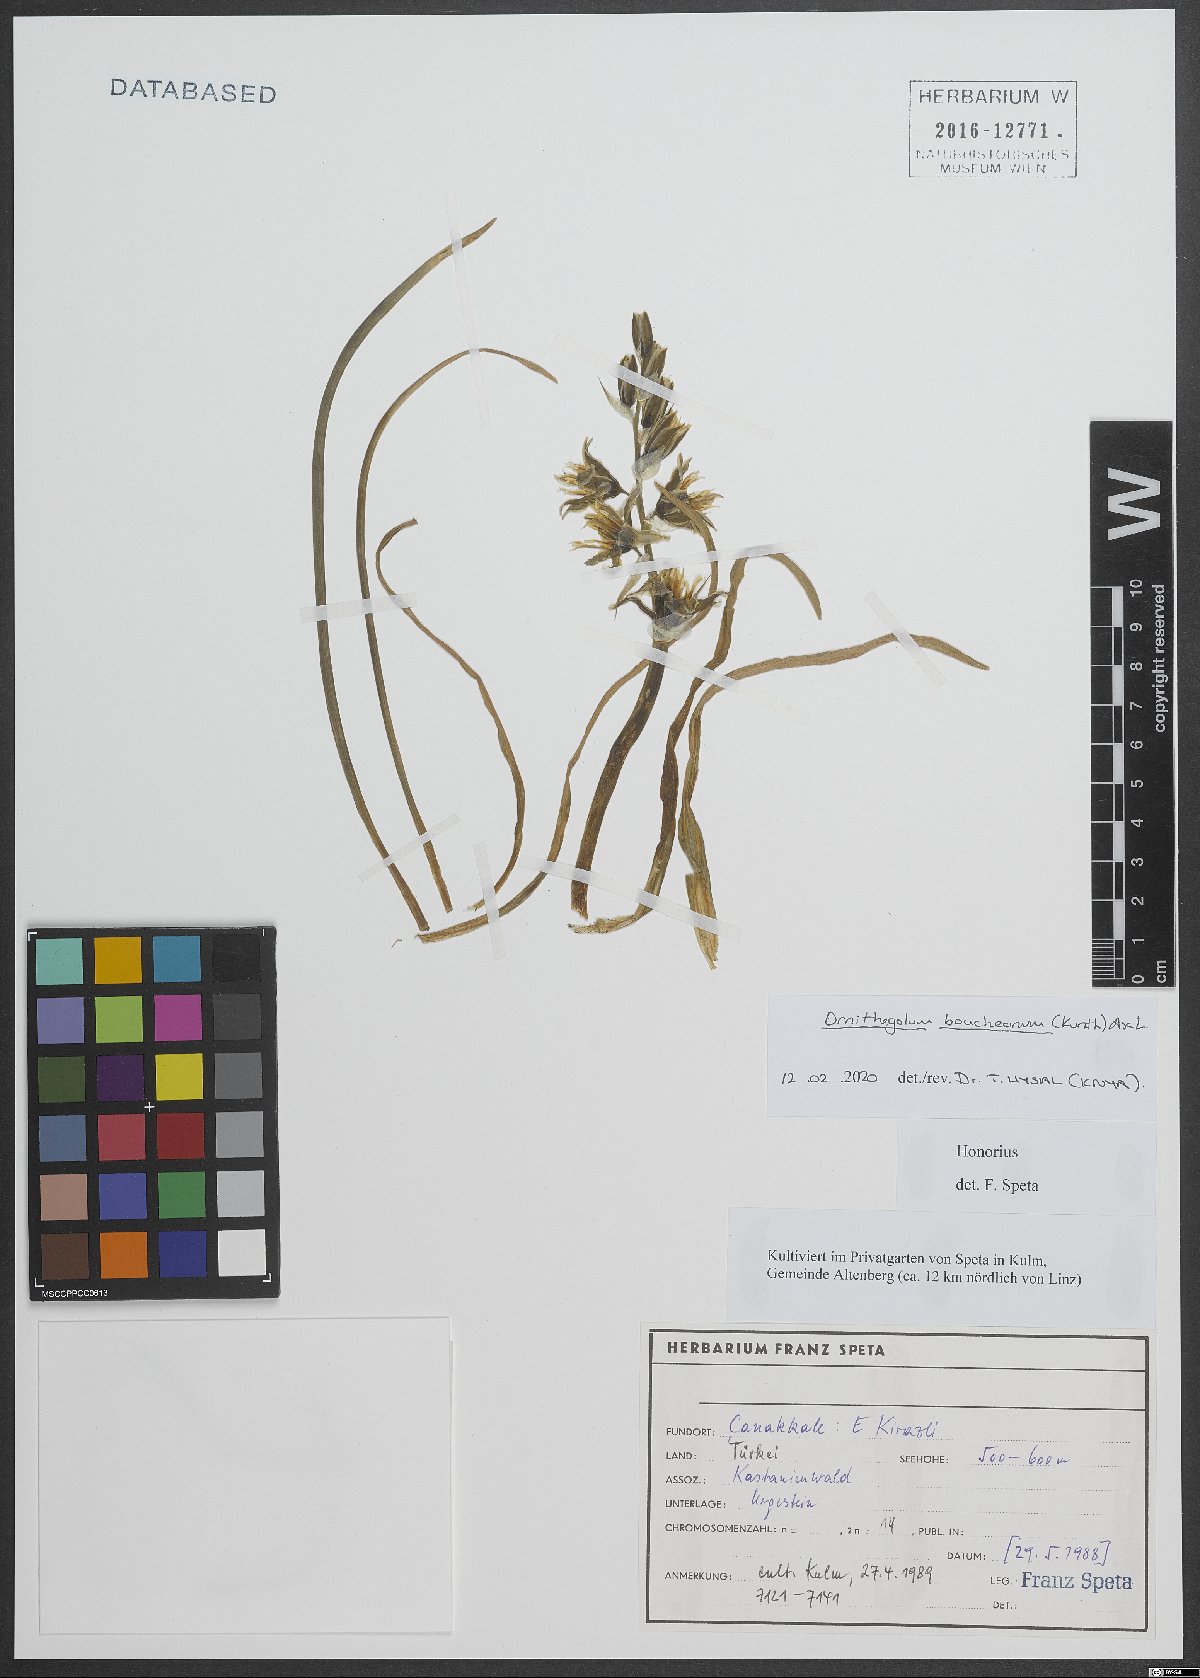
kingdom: Plantae
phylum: Tracheophyta
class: Liliopsida
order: Asparagales
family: Asparagaceae
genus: Ornithogalum
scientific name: Ornithogalum boucheanum
